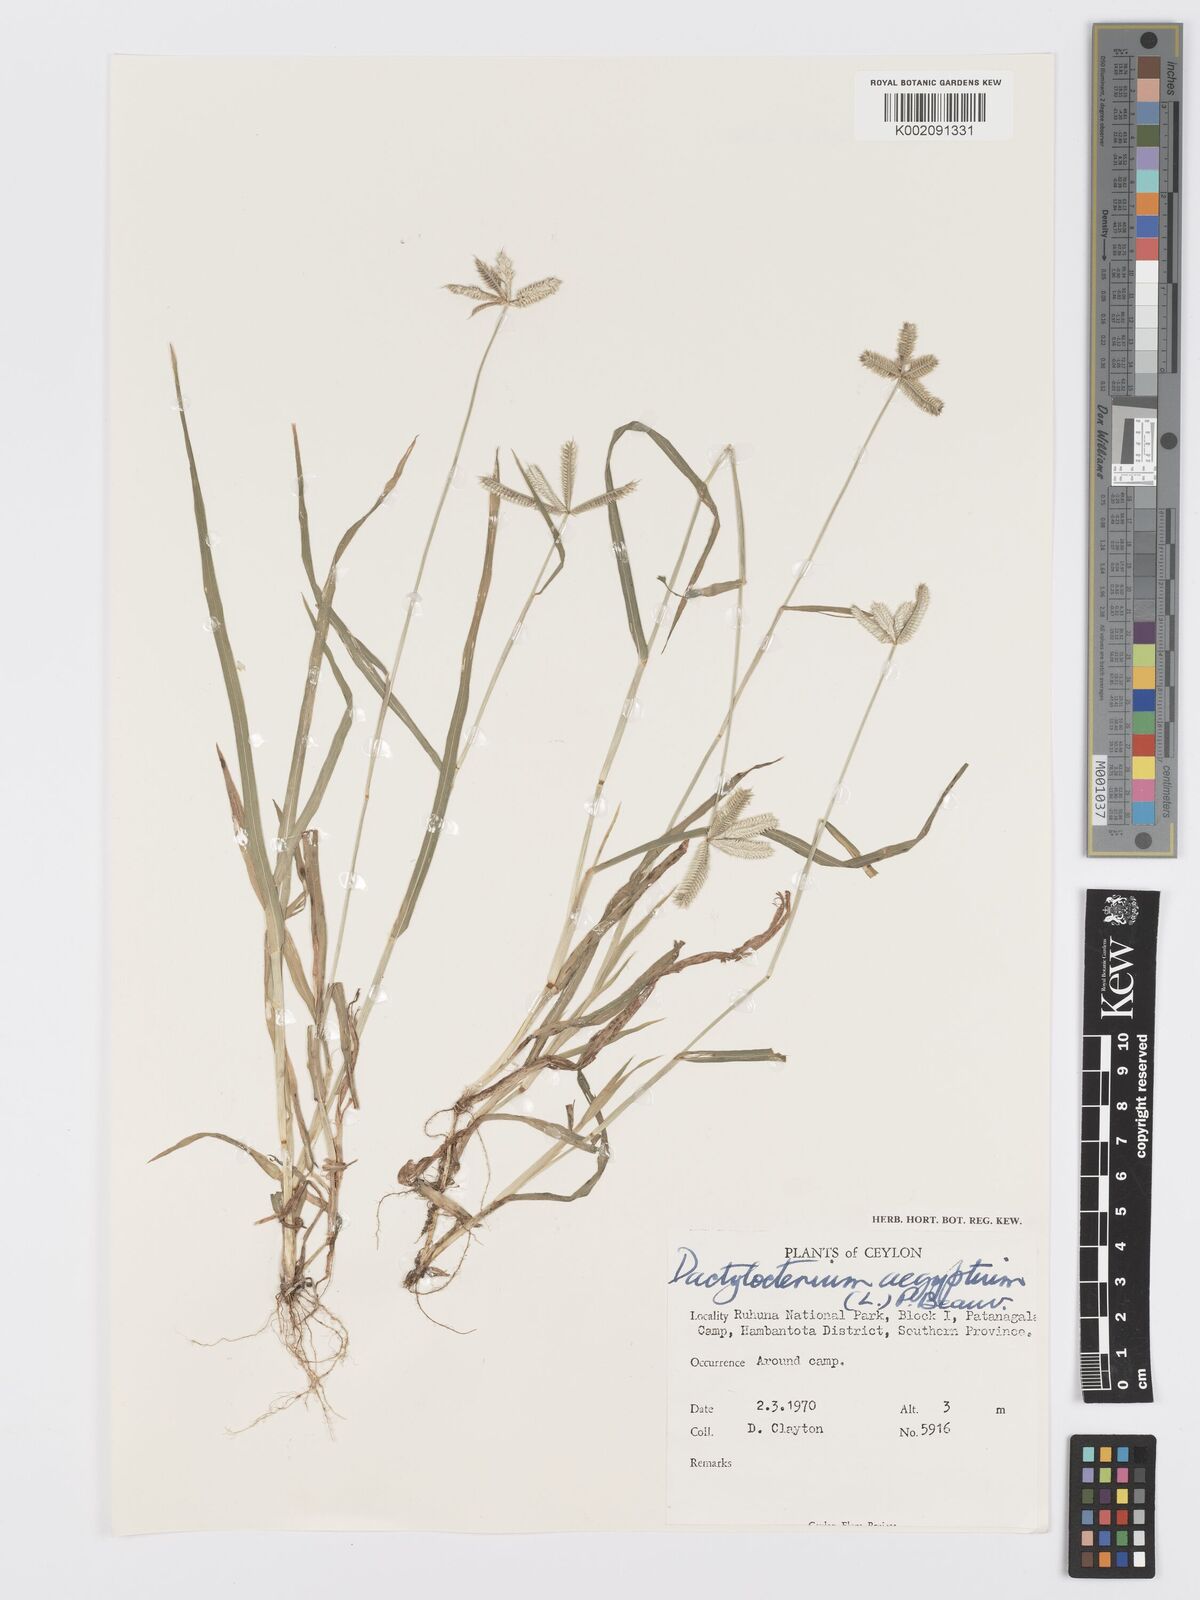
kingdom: Plantae
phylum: Tracheophyta
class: Liliopsida
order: Poales
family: Poaceae
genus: Dactyloctenium
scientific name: Dactyloctenium aegyptium
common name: Egyptian grass
